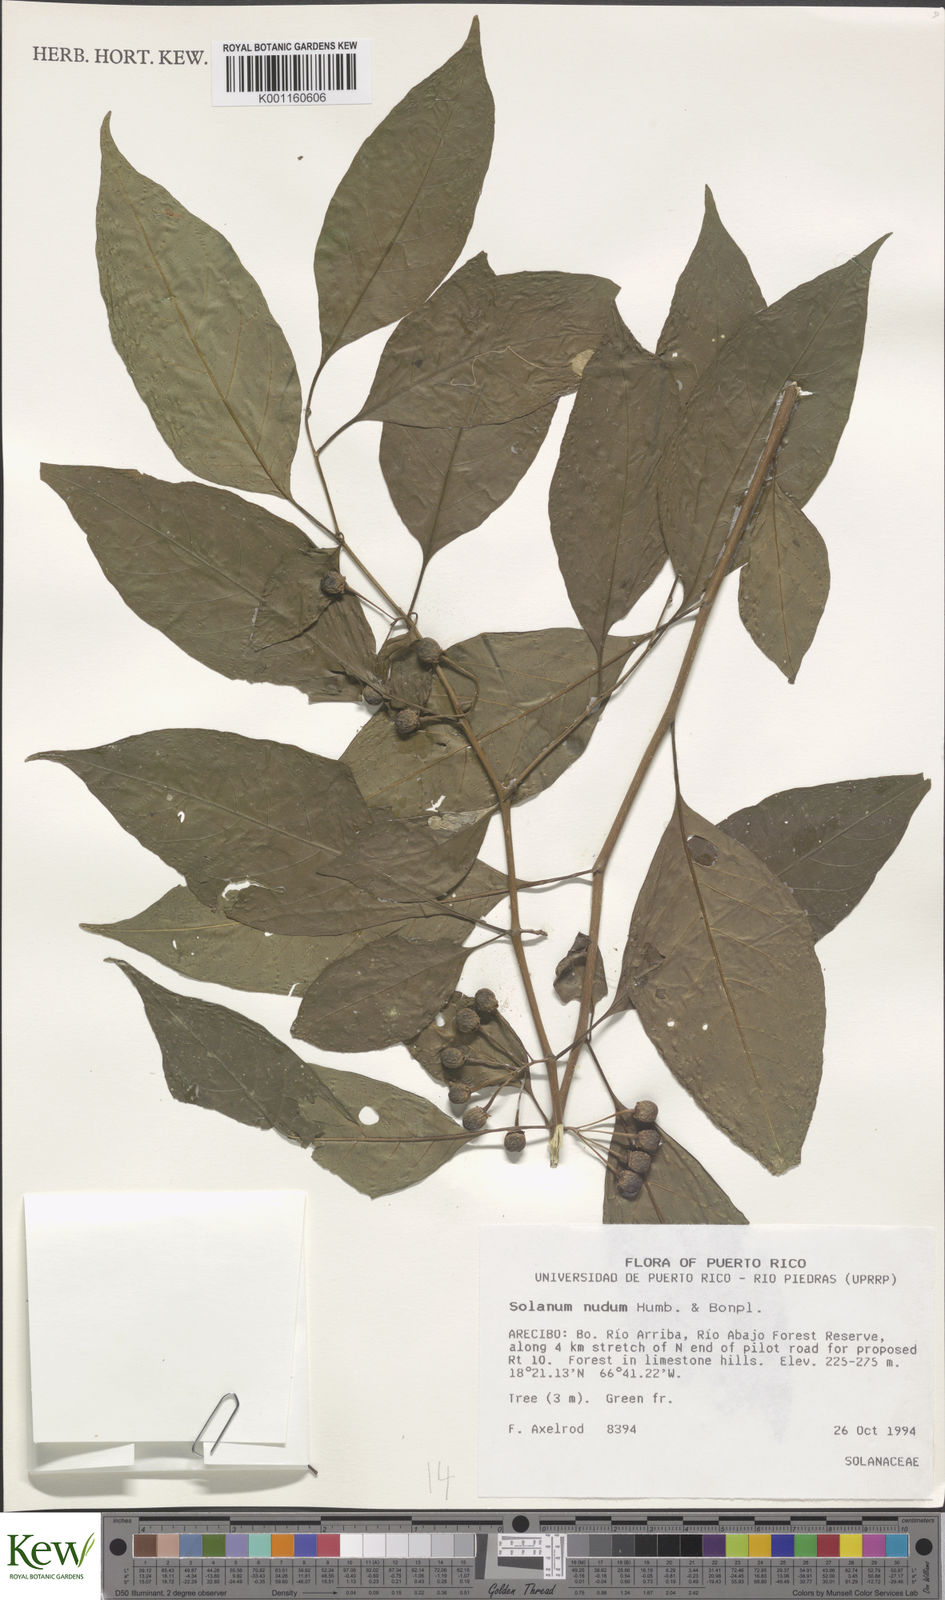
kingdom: Plantae
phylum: Tracheophyta
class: Magnoliopsida
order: Solanales
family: Solanaceae
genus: Solanum
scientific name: Solanum nudum
